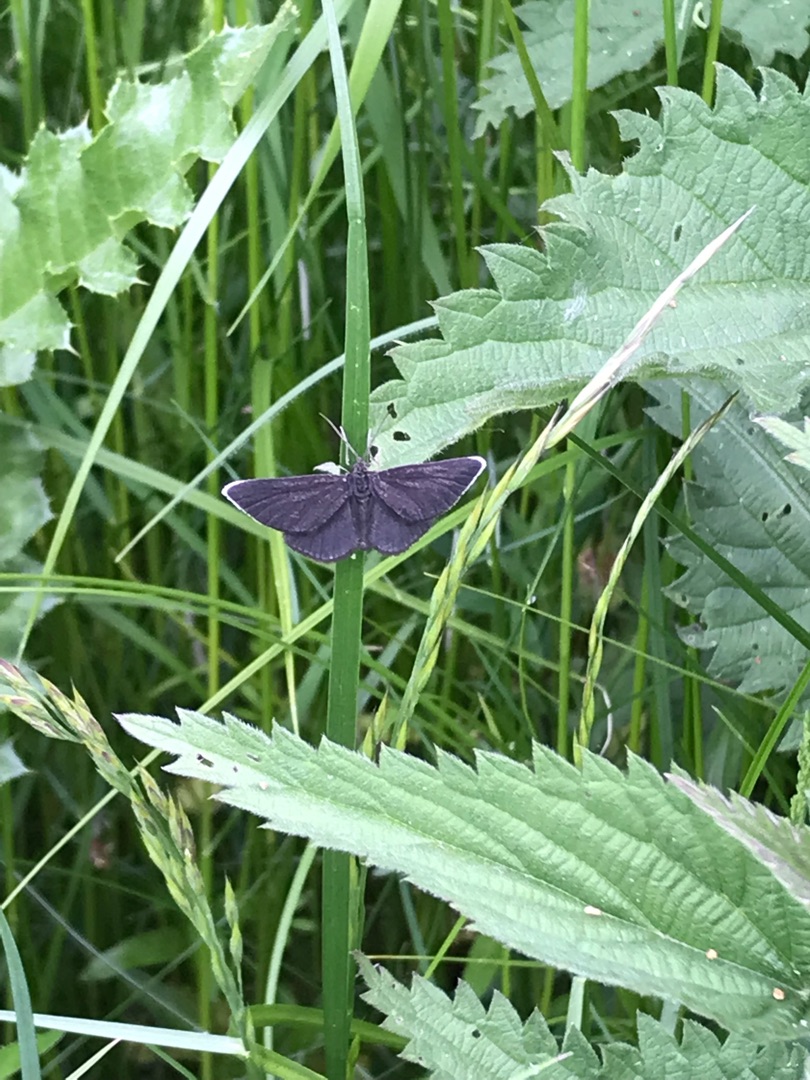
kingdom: Animalia
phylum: Arthropoda
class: Insecta
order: Lepidoptera
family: Geometridae
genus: Odezia
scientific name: Odezia atrata
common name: Sort måler
